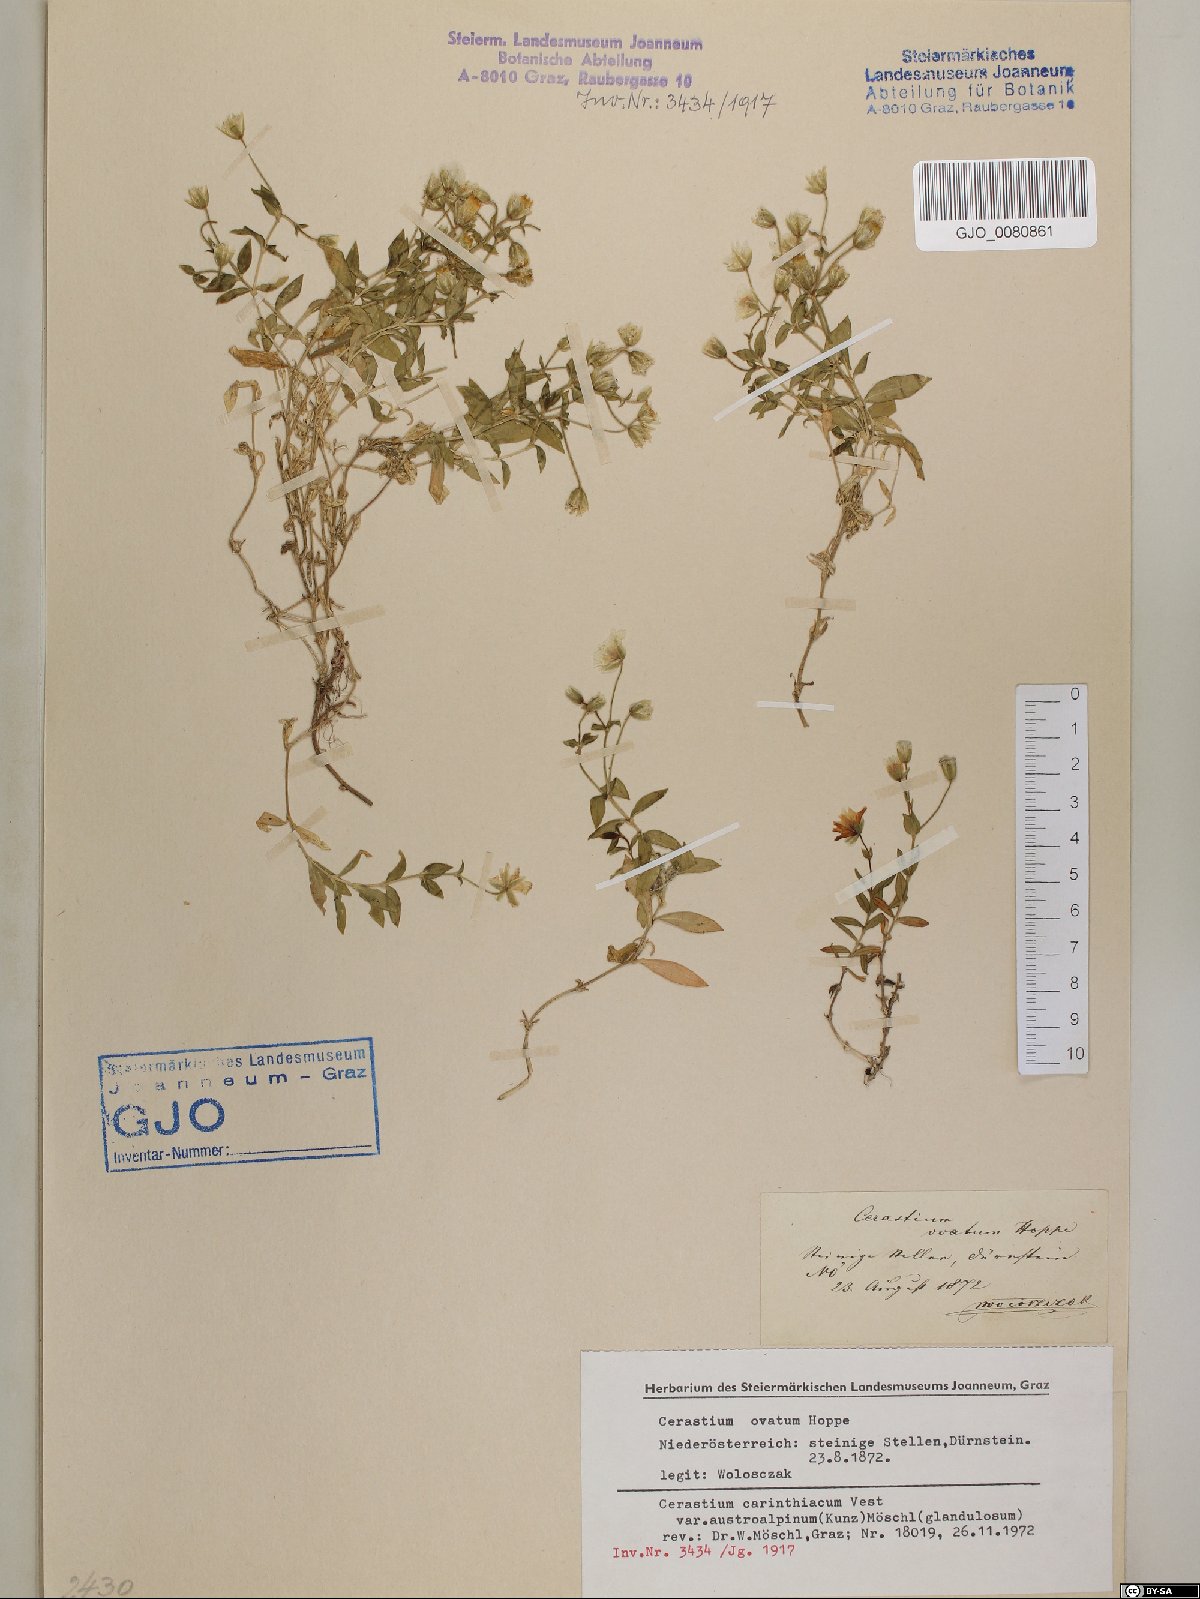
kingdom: Plantae
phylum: Tracheophyta
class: Magnoliopsida
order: Caryophyllales
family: Caryophyllaceae
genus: Cerastium
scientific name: Cerastium carinthiacum
